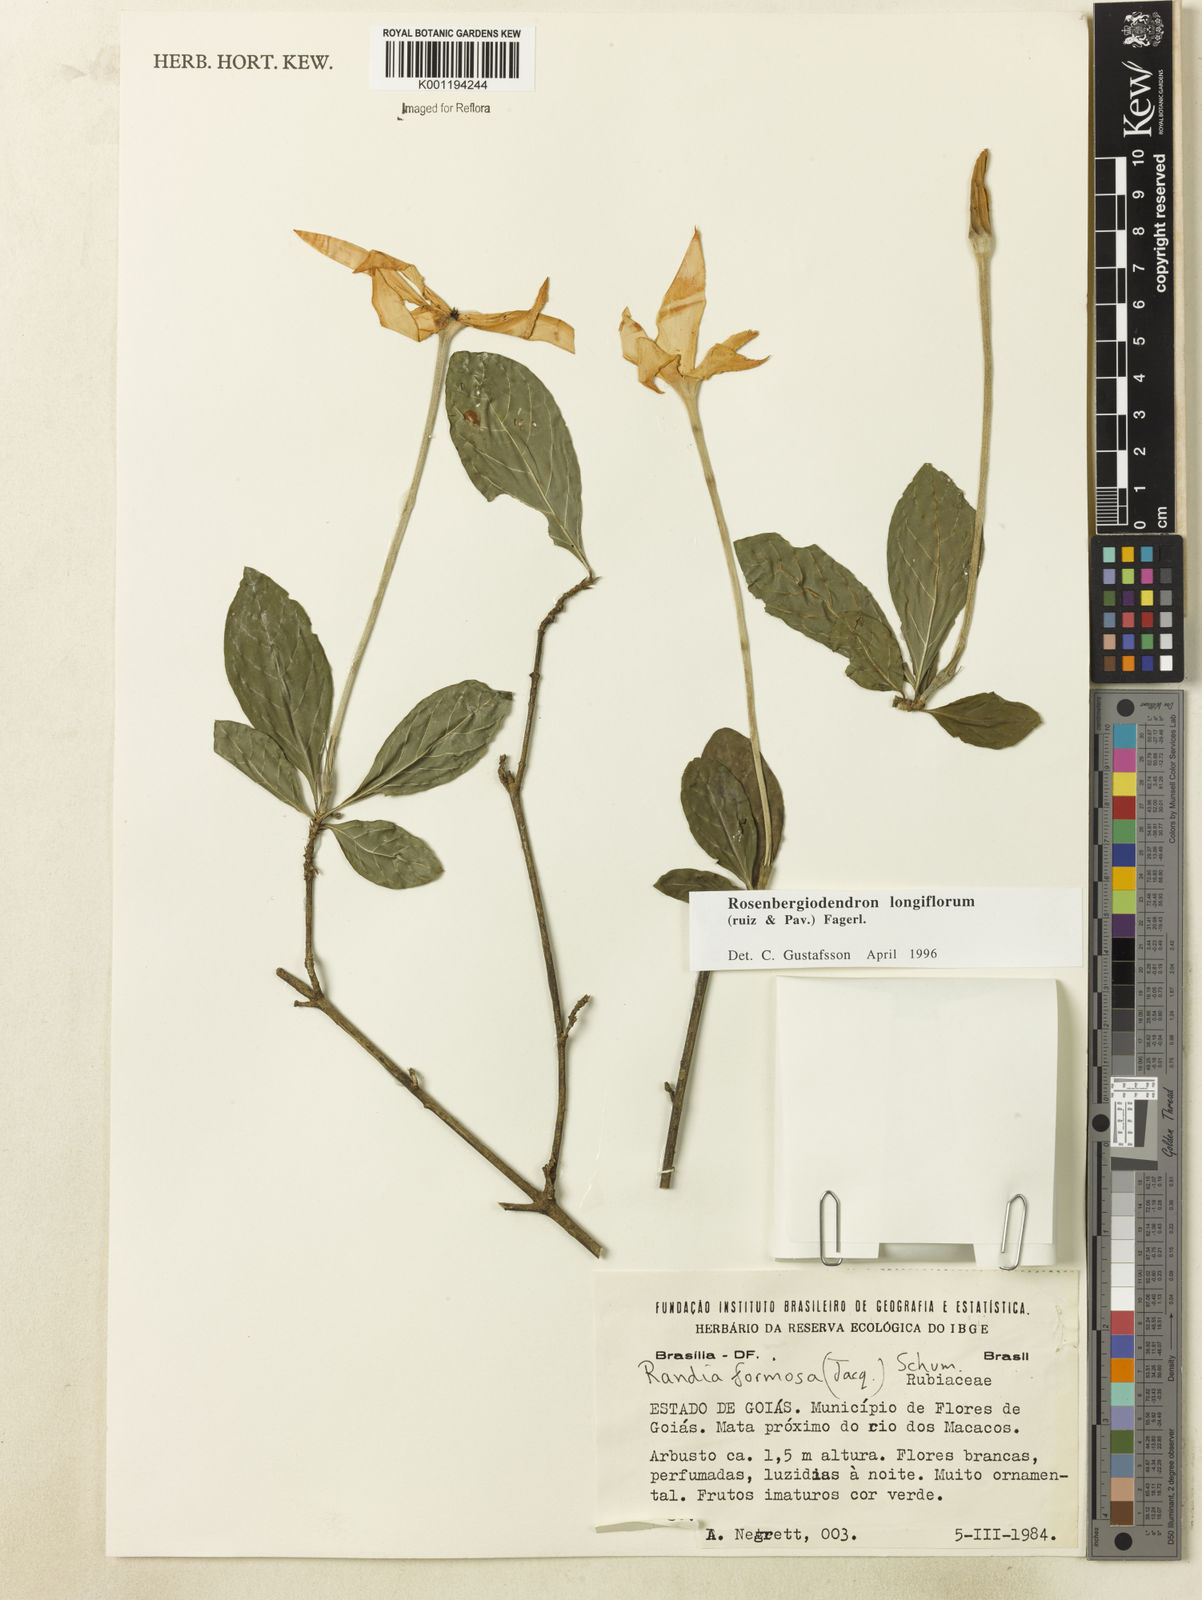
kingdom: Plantae
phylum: Tracheophyta
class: Magnoliopsida
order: Gentianales
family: Rubiaceae
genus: Rosenbergiodendron
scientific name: Rosenbergiodendron longiflorum
